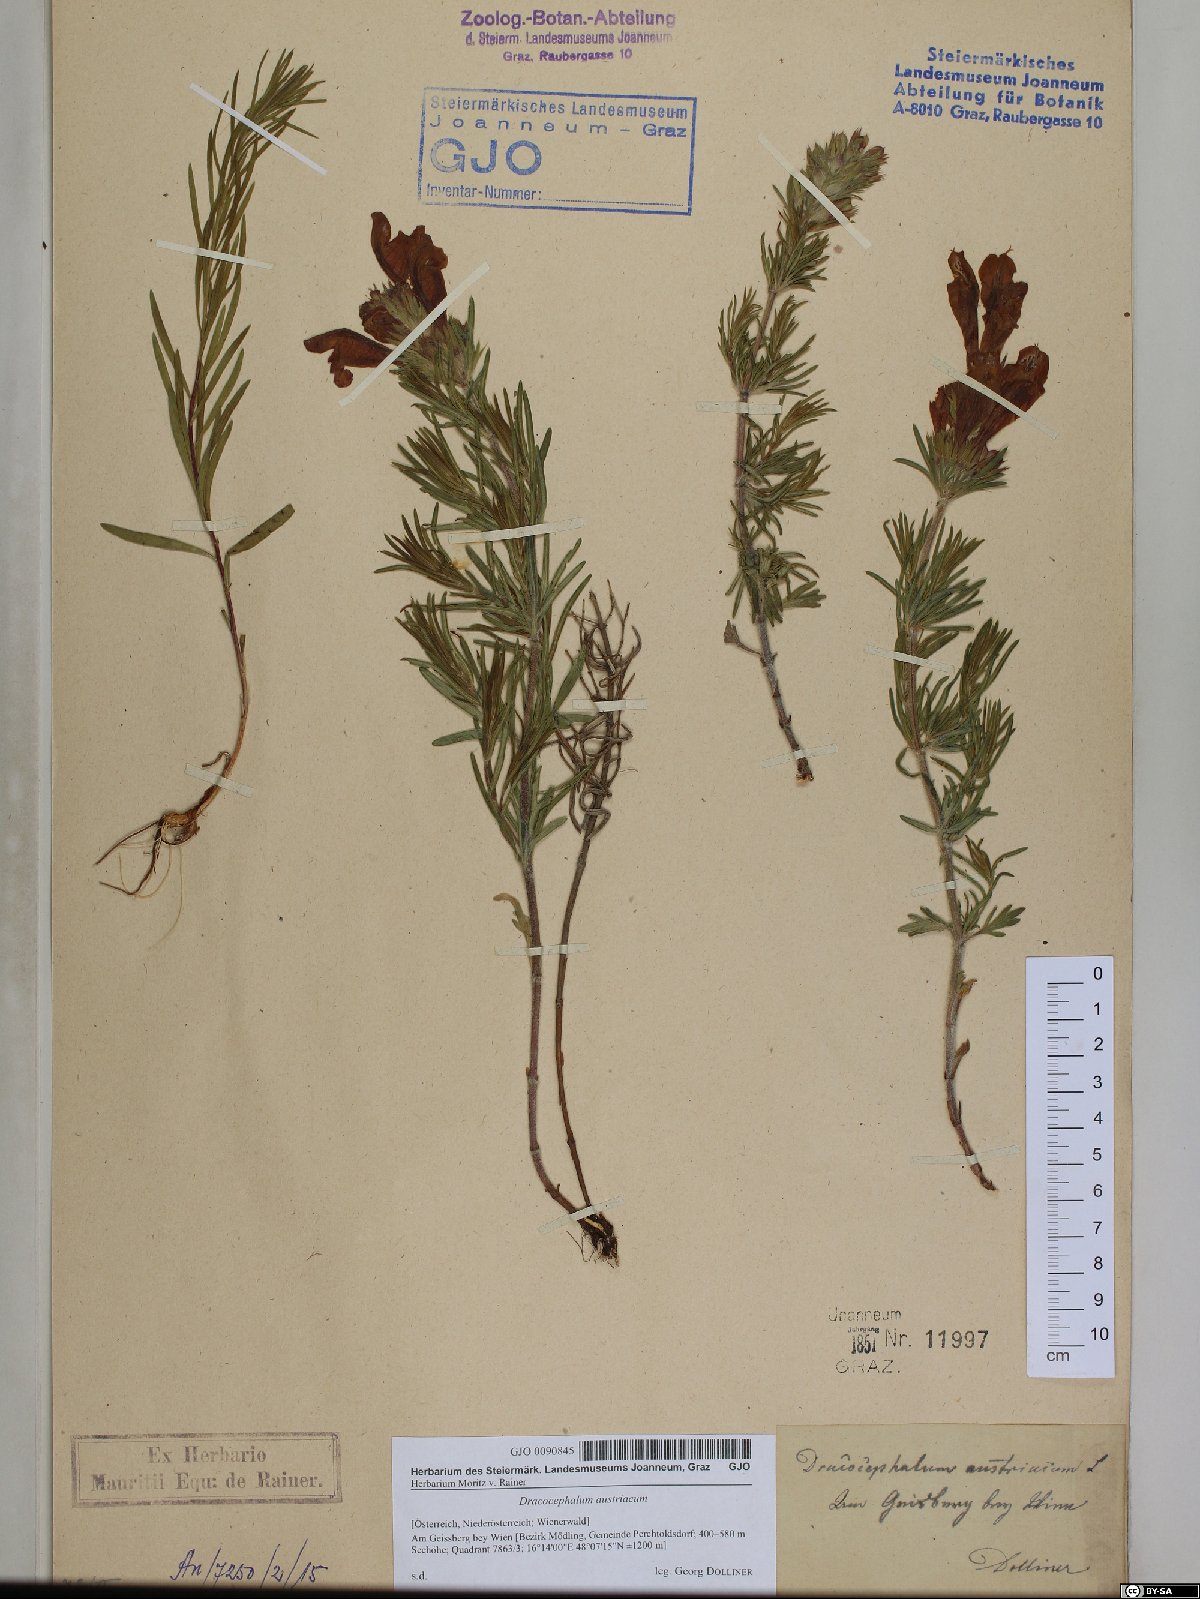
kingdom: Plantae
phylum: Tracheophyta
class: Magnoliopsida
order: Lamiales
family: Lamiaceae
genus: Dracocephalum
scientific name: Dracocephalum austriacum
